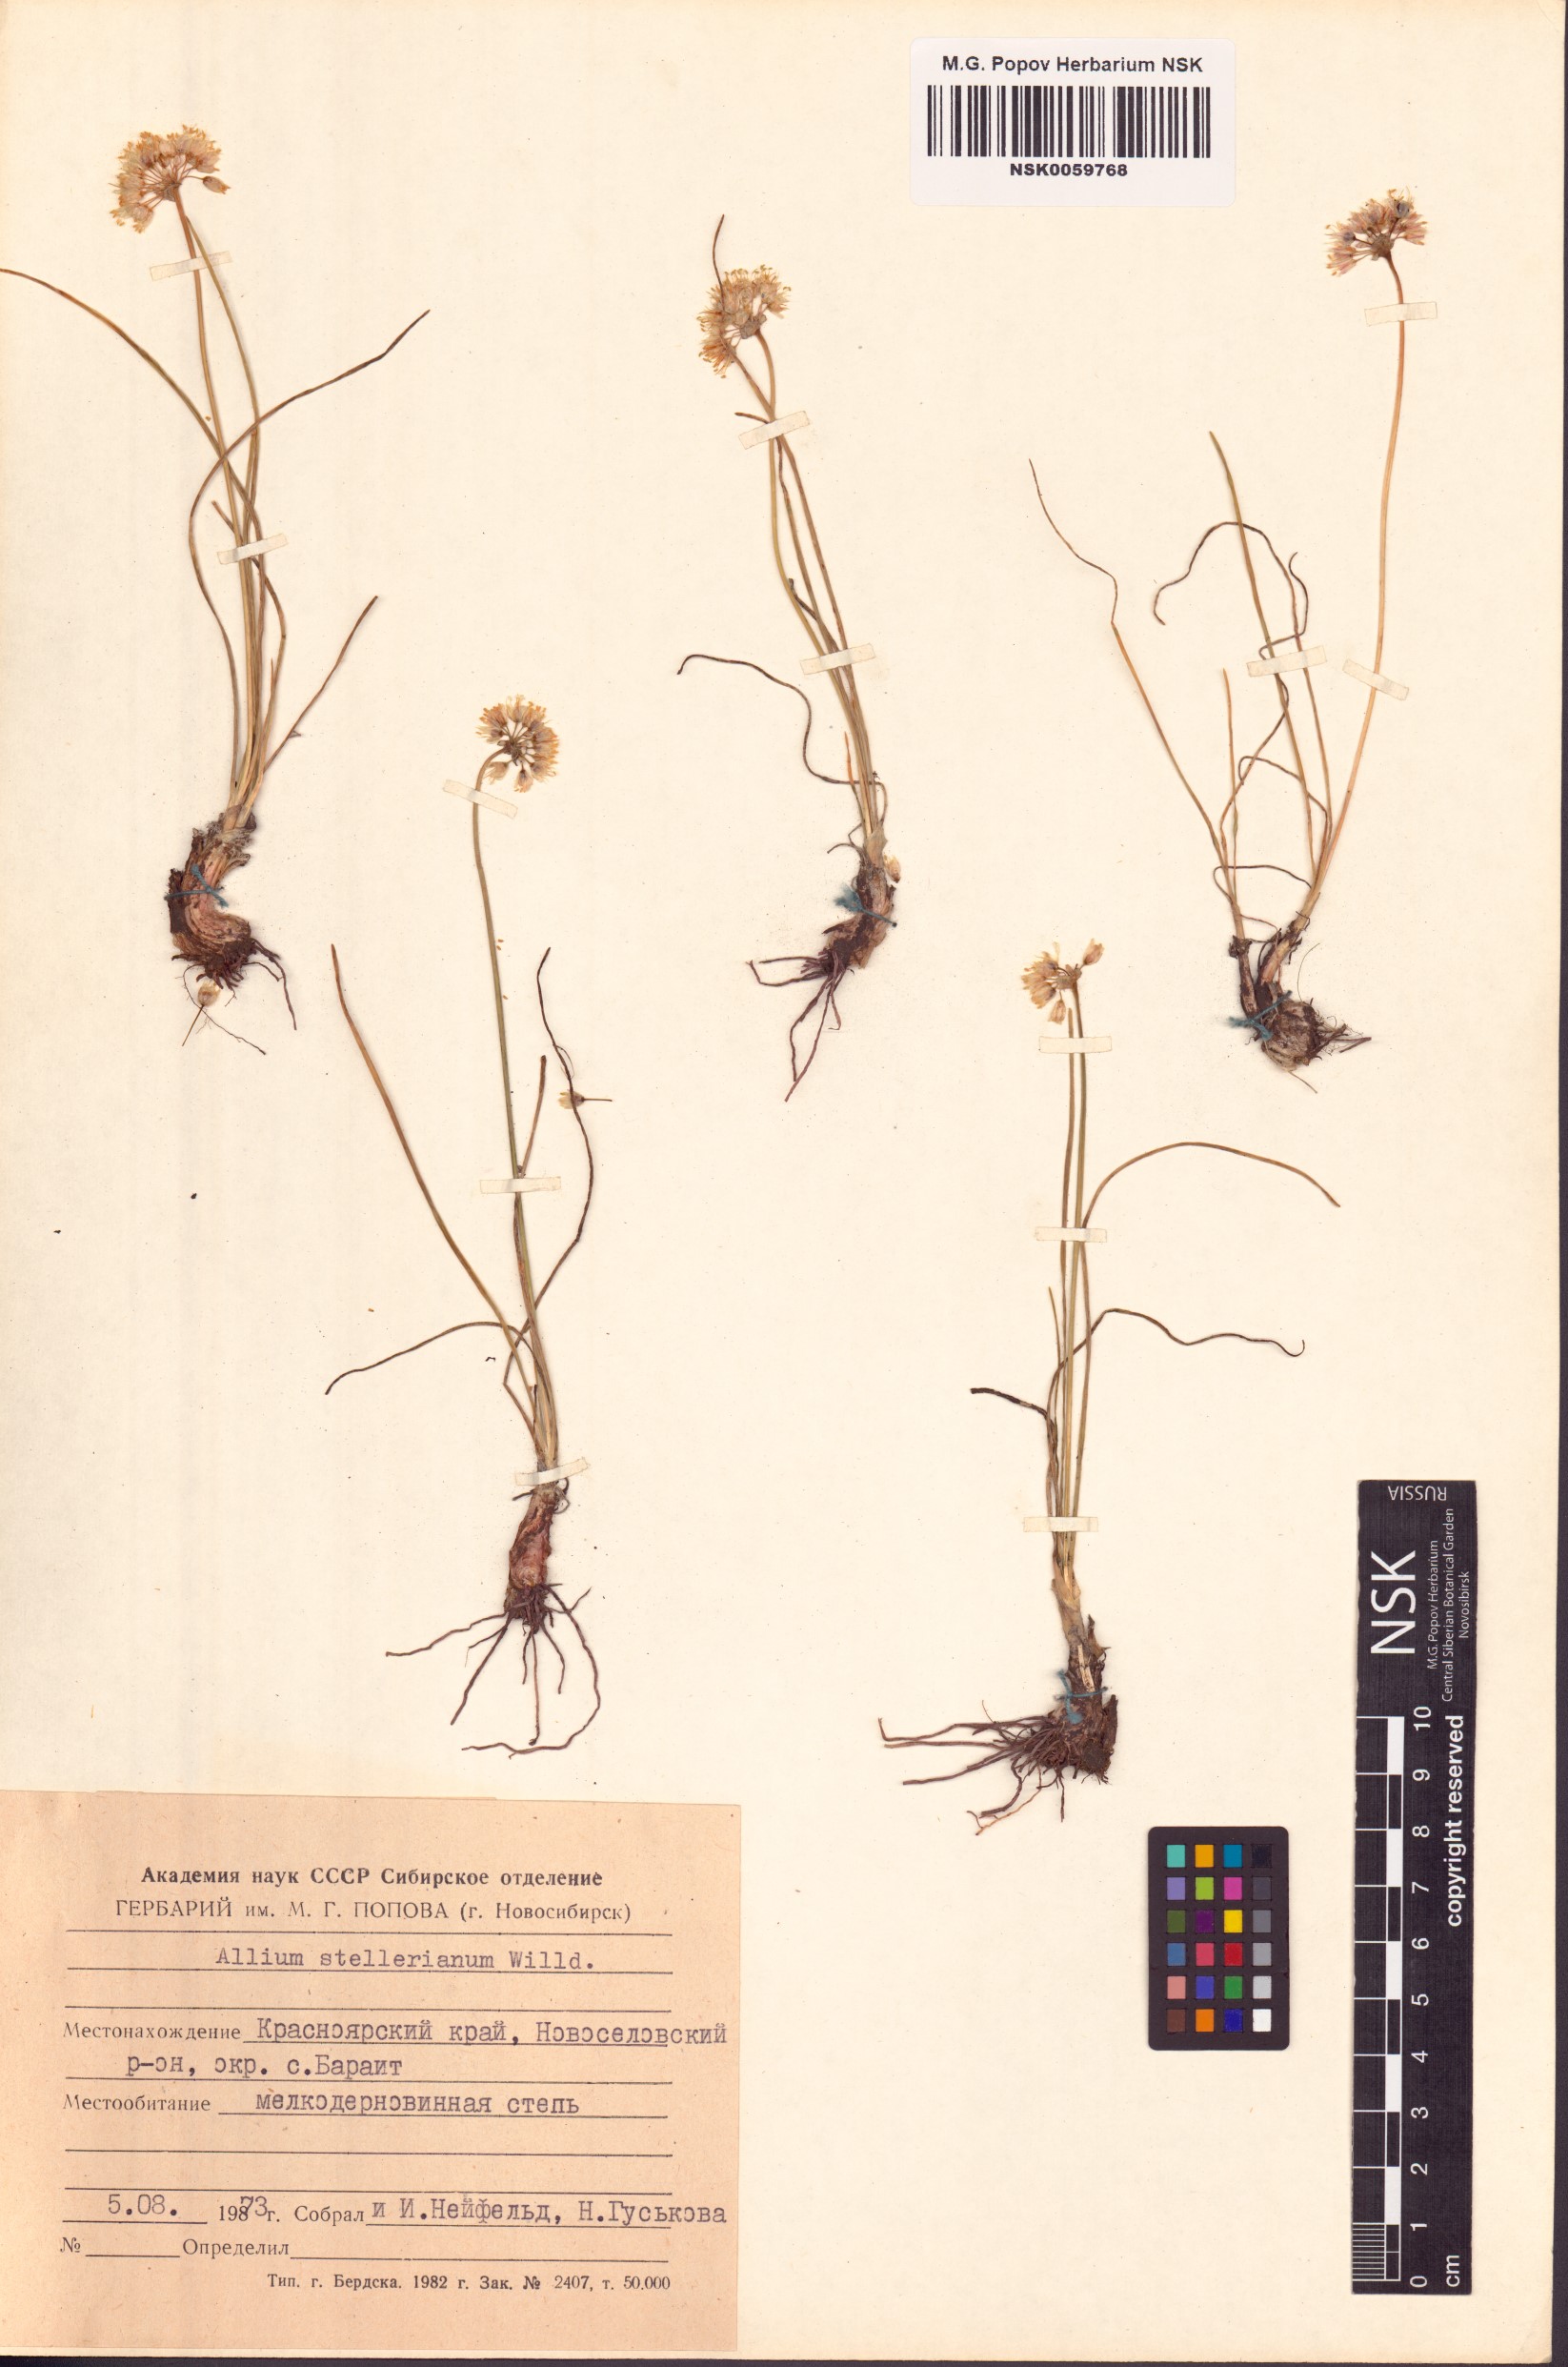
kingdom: Plantae
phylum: Tracheophyta
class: Liliopsida
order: Asparagales
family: Amaryllidaceae
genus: Allium
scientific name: Allium stellerianum
